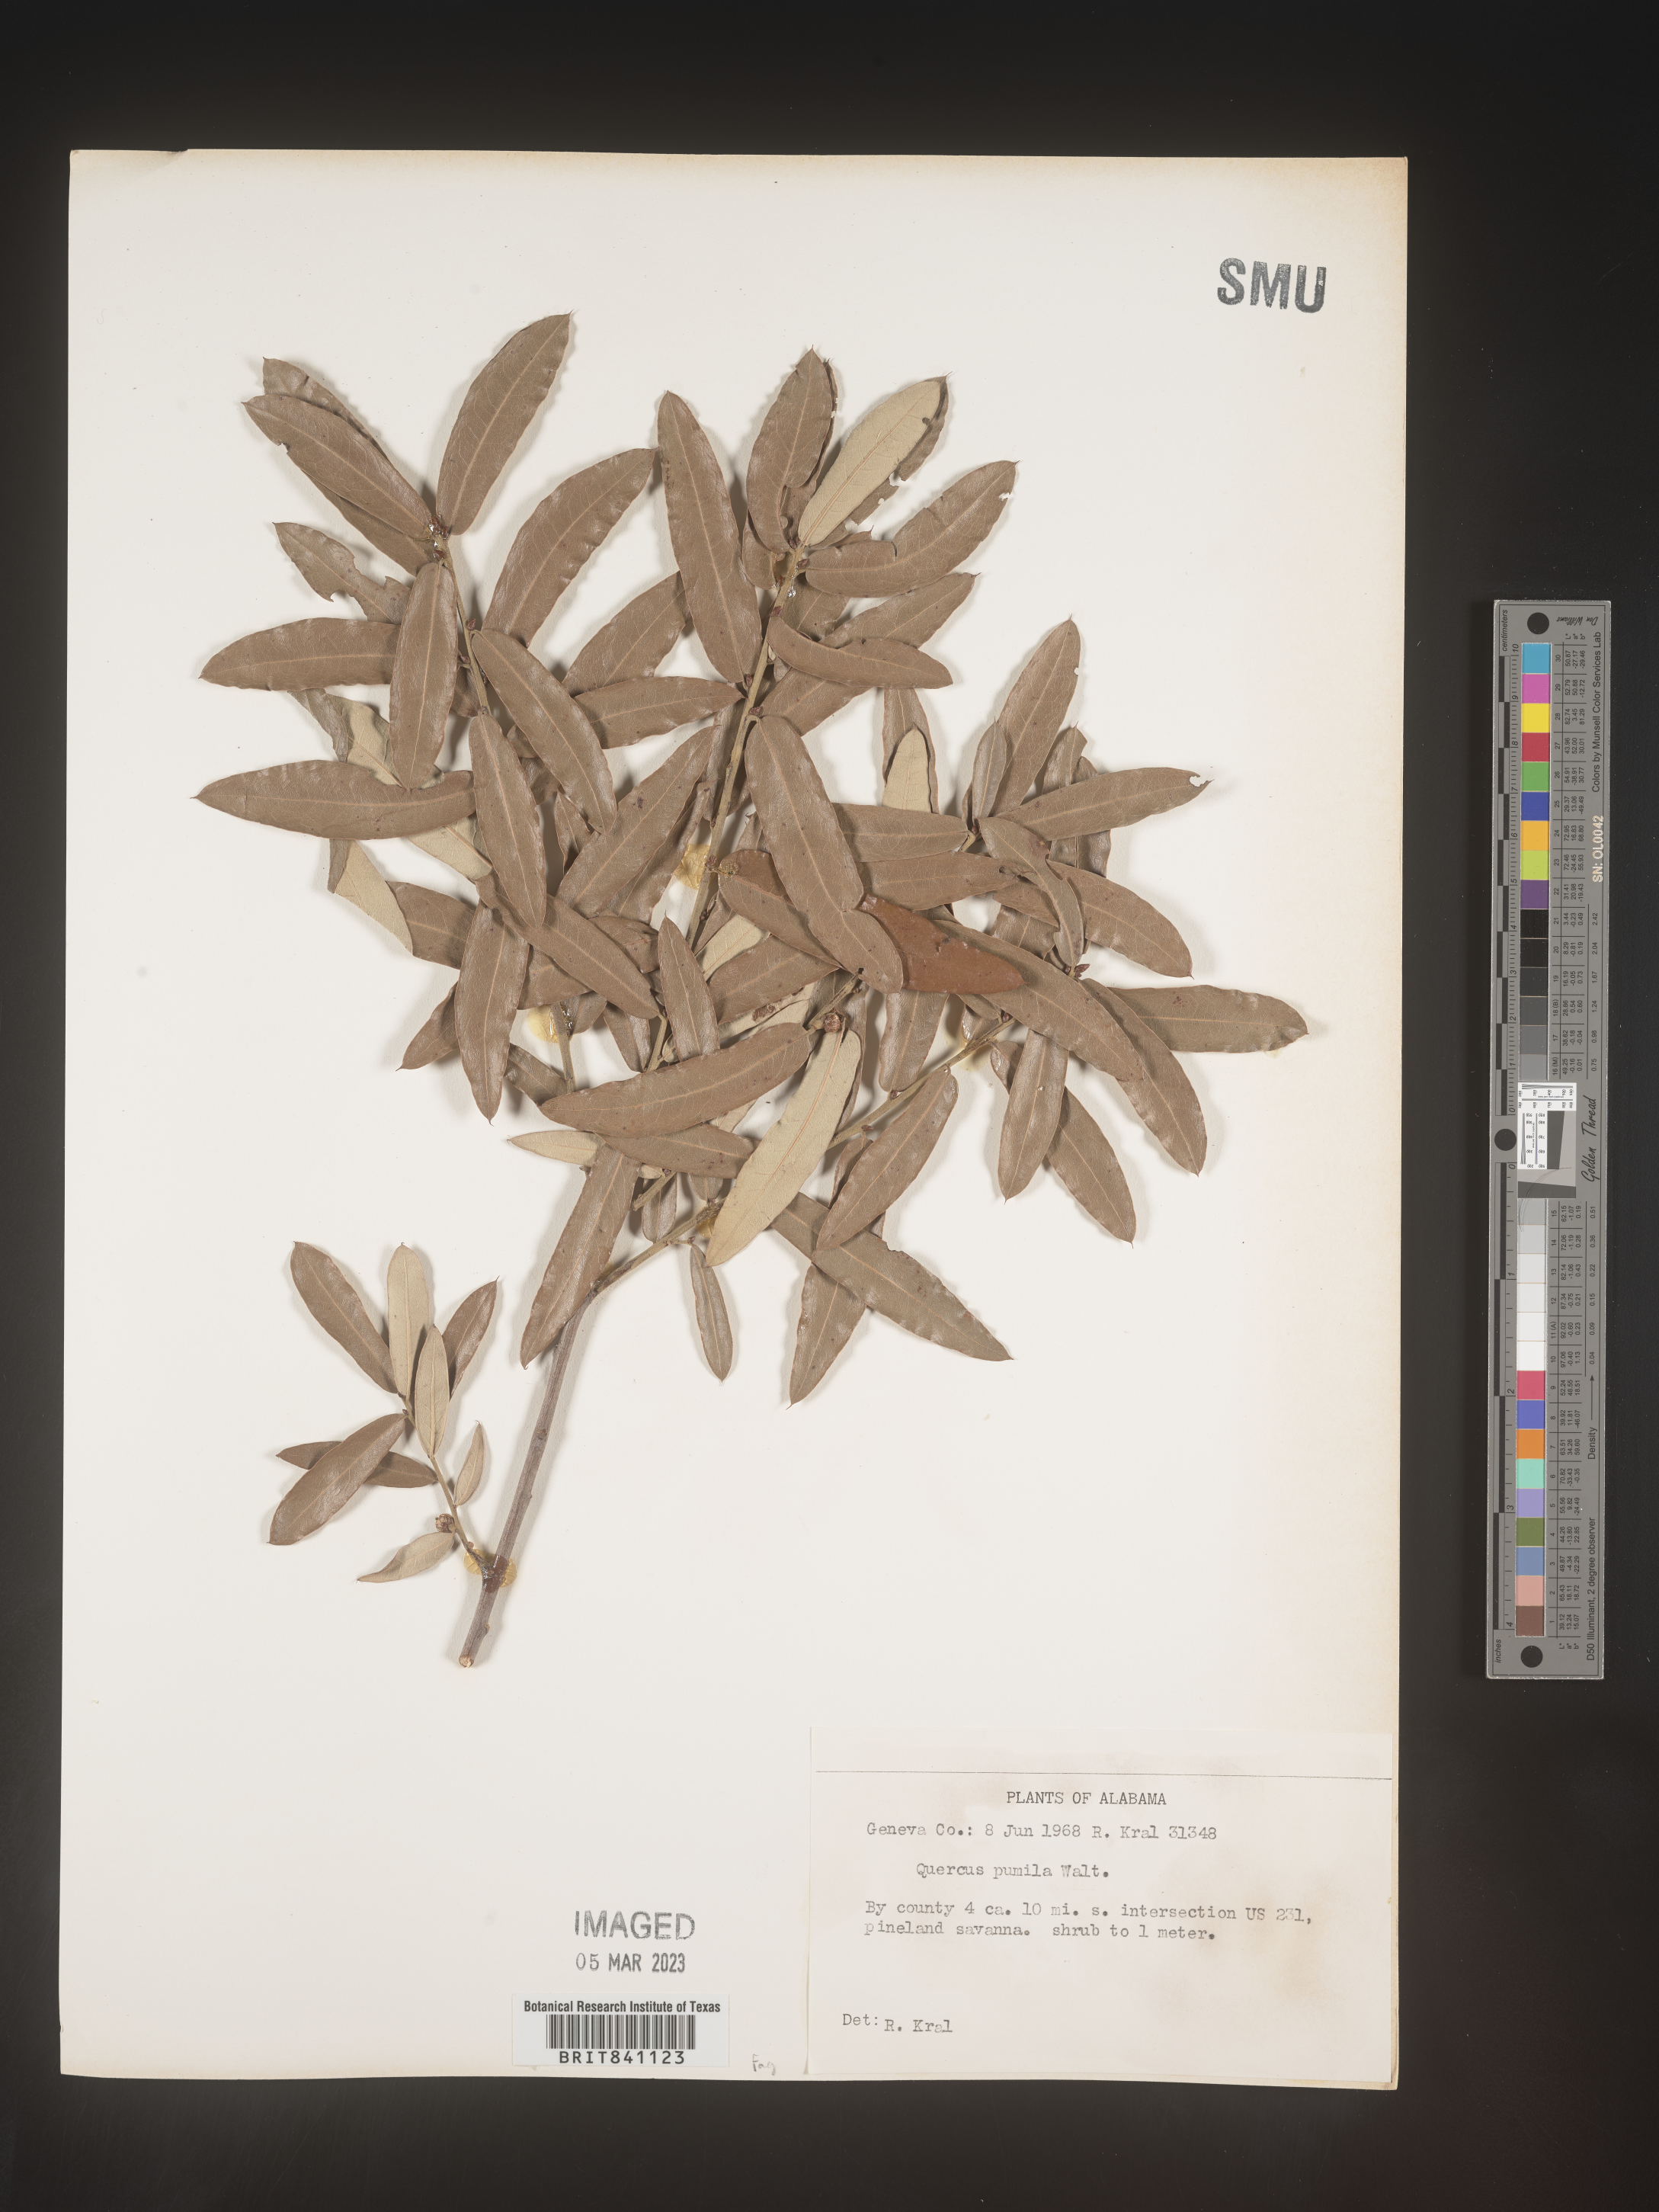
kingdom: Plantae
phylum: Tracheophyta
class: Magnoliopsida
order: Fagales
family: Fagaceae
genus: Quercus
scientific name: Quercus pumila
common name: Runner oak
